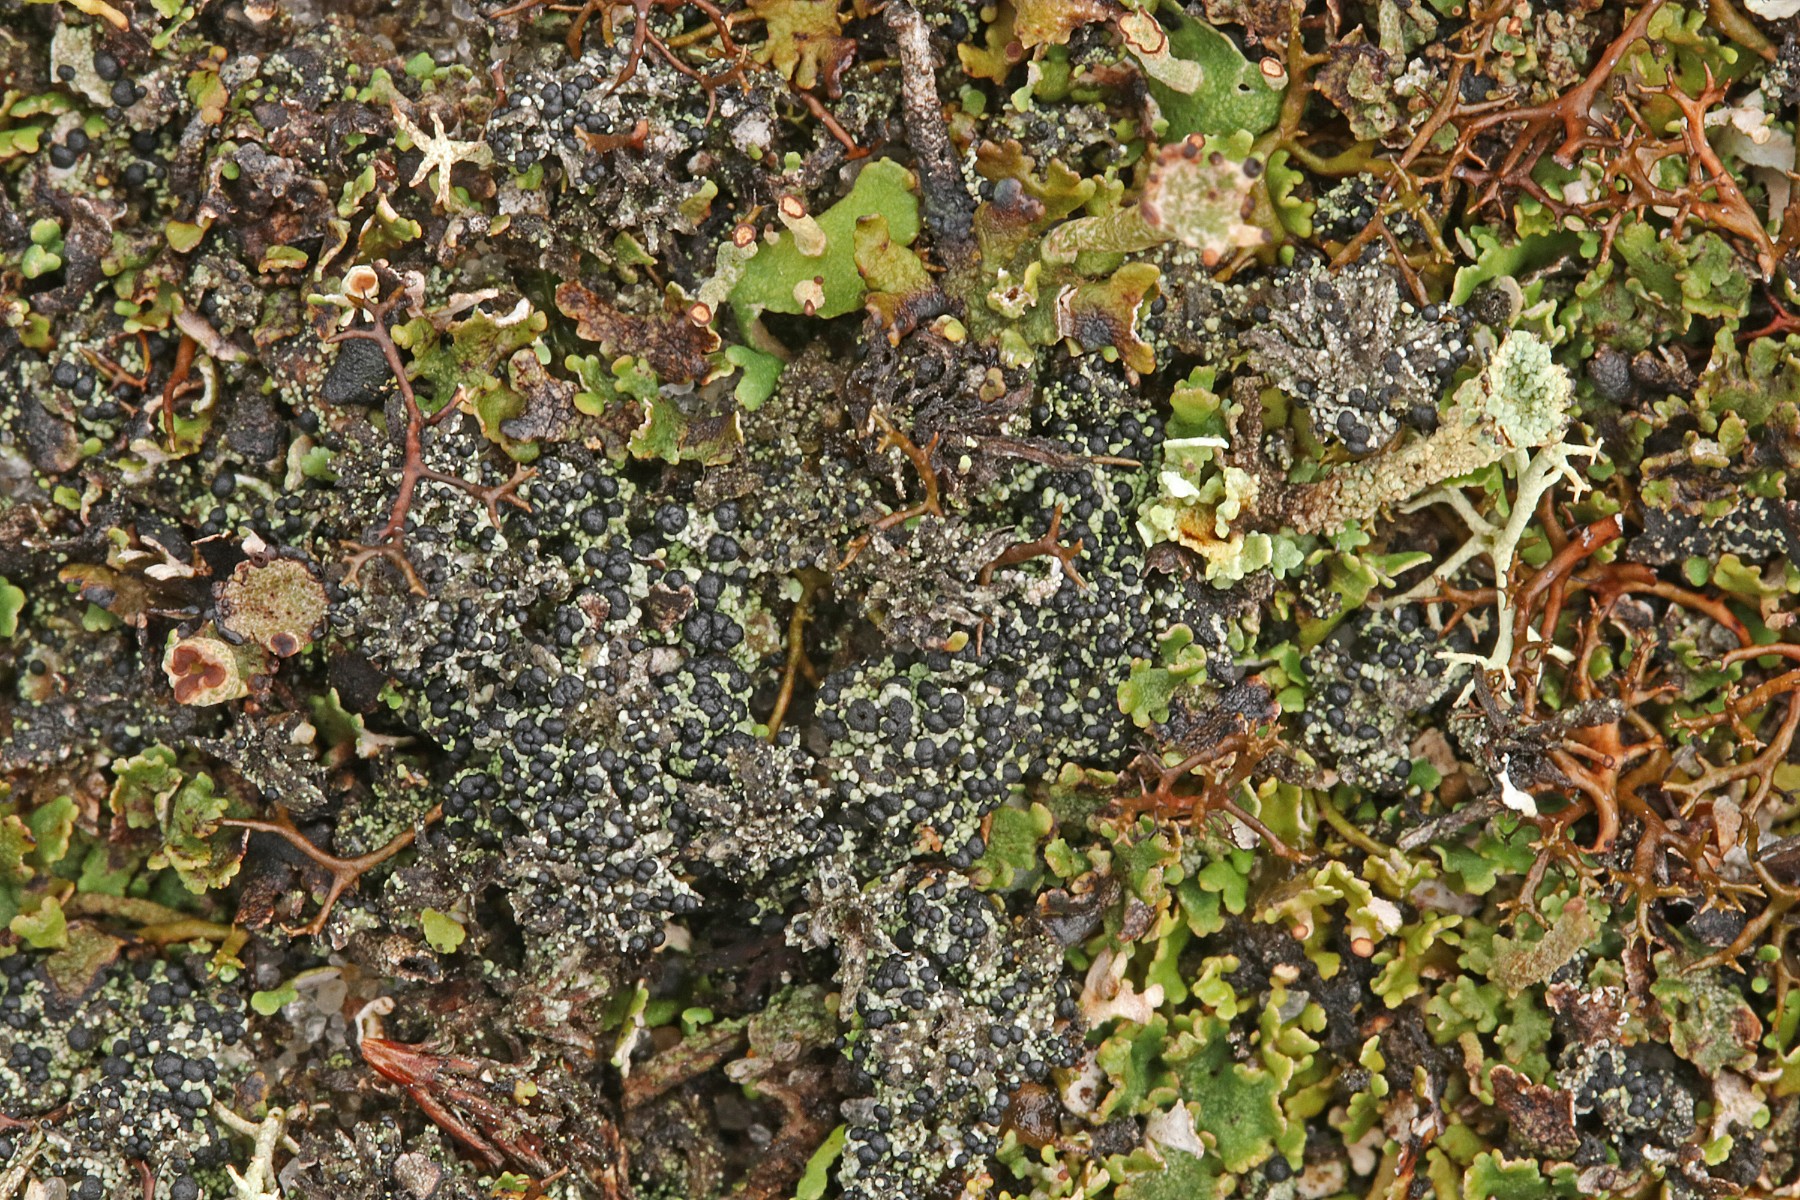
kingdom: Fungi
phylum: Ascomycota
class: Lecanoromycetes
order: Lecanorales
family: Byssolomataceae
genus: Micarea
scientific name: Micarea lignaria
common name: tørve-knaplav
